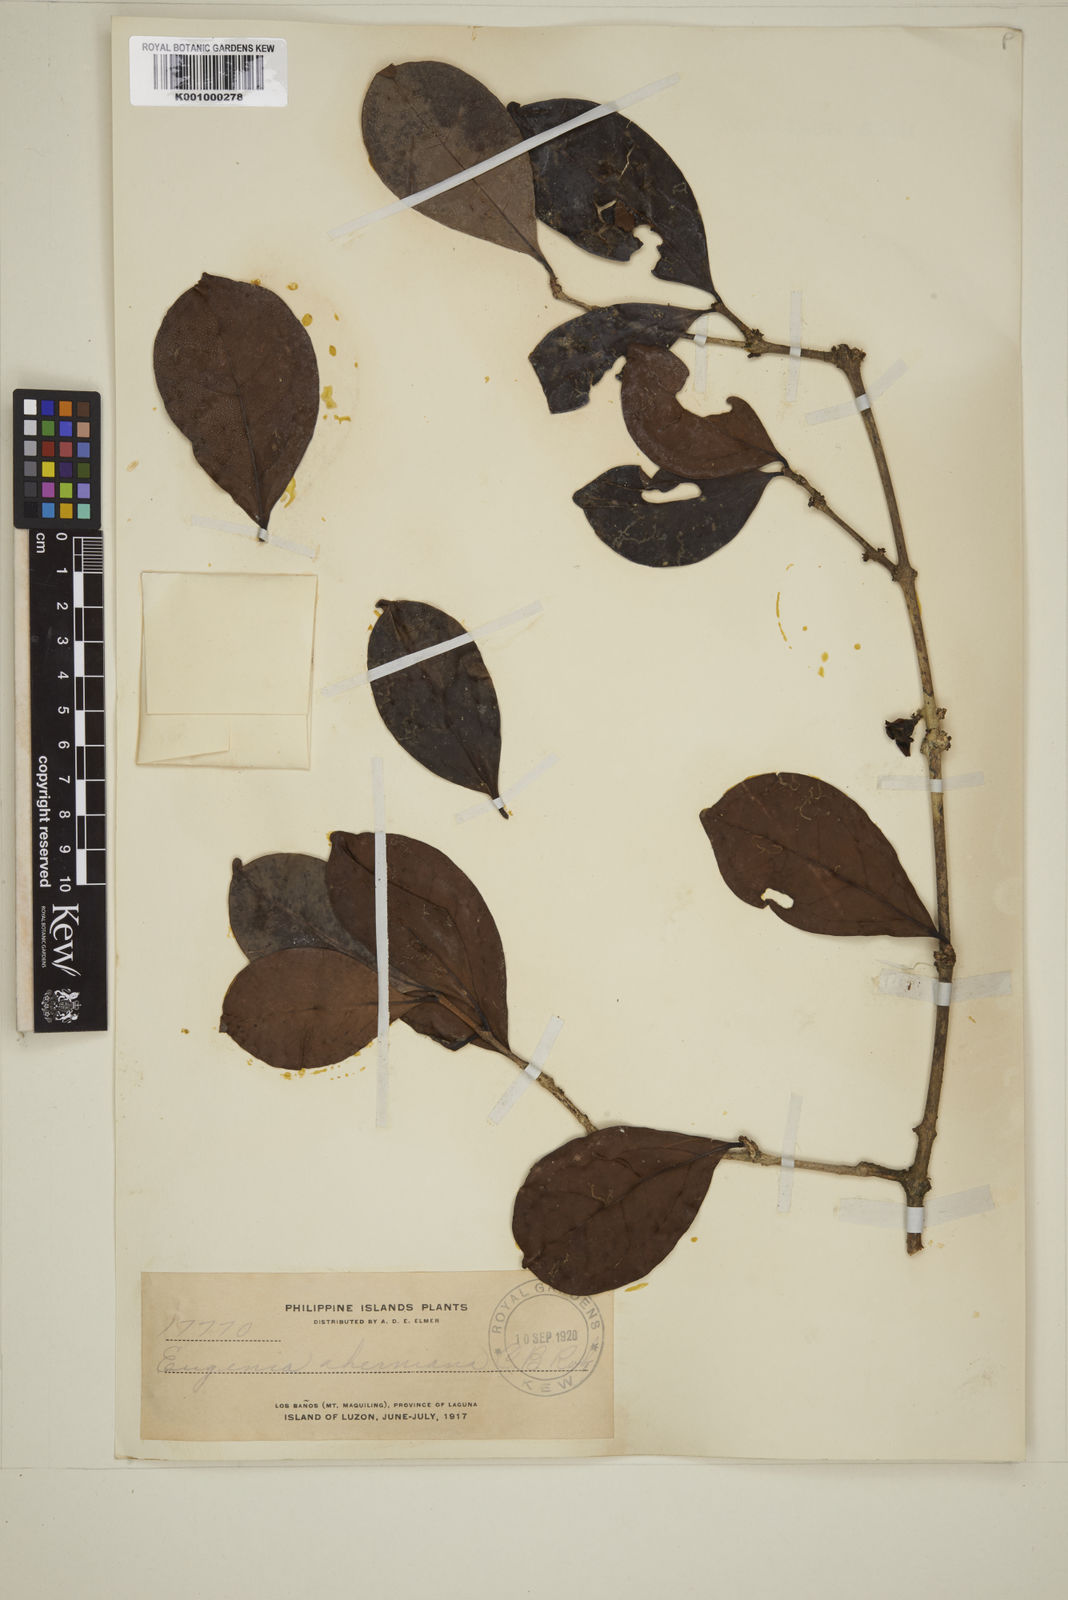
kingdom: Plantae
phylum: Tracheophyta
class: Magnoliopsida
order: Myrtales
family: Myrtaceae
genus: Eugenia
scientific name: Eugenia aherniana
